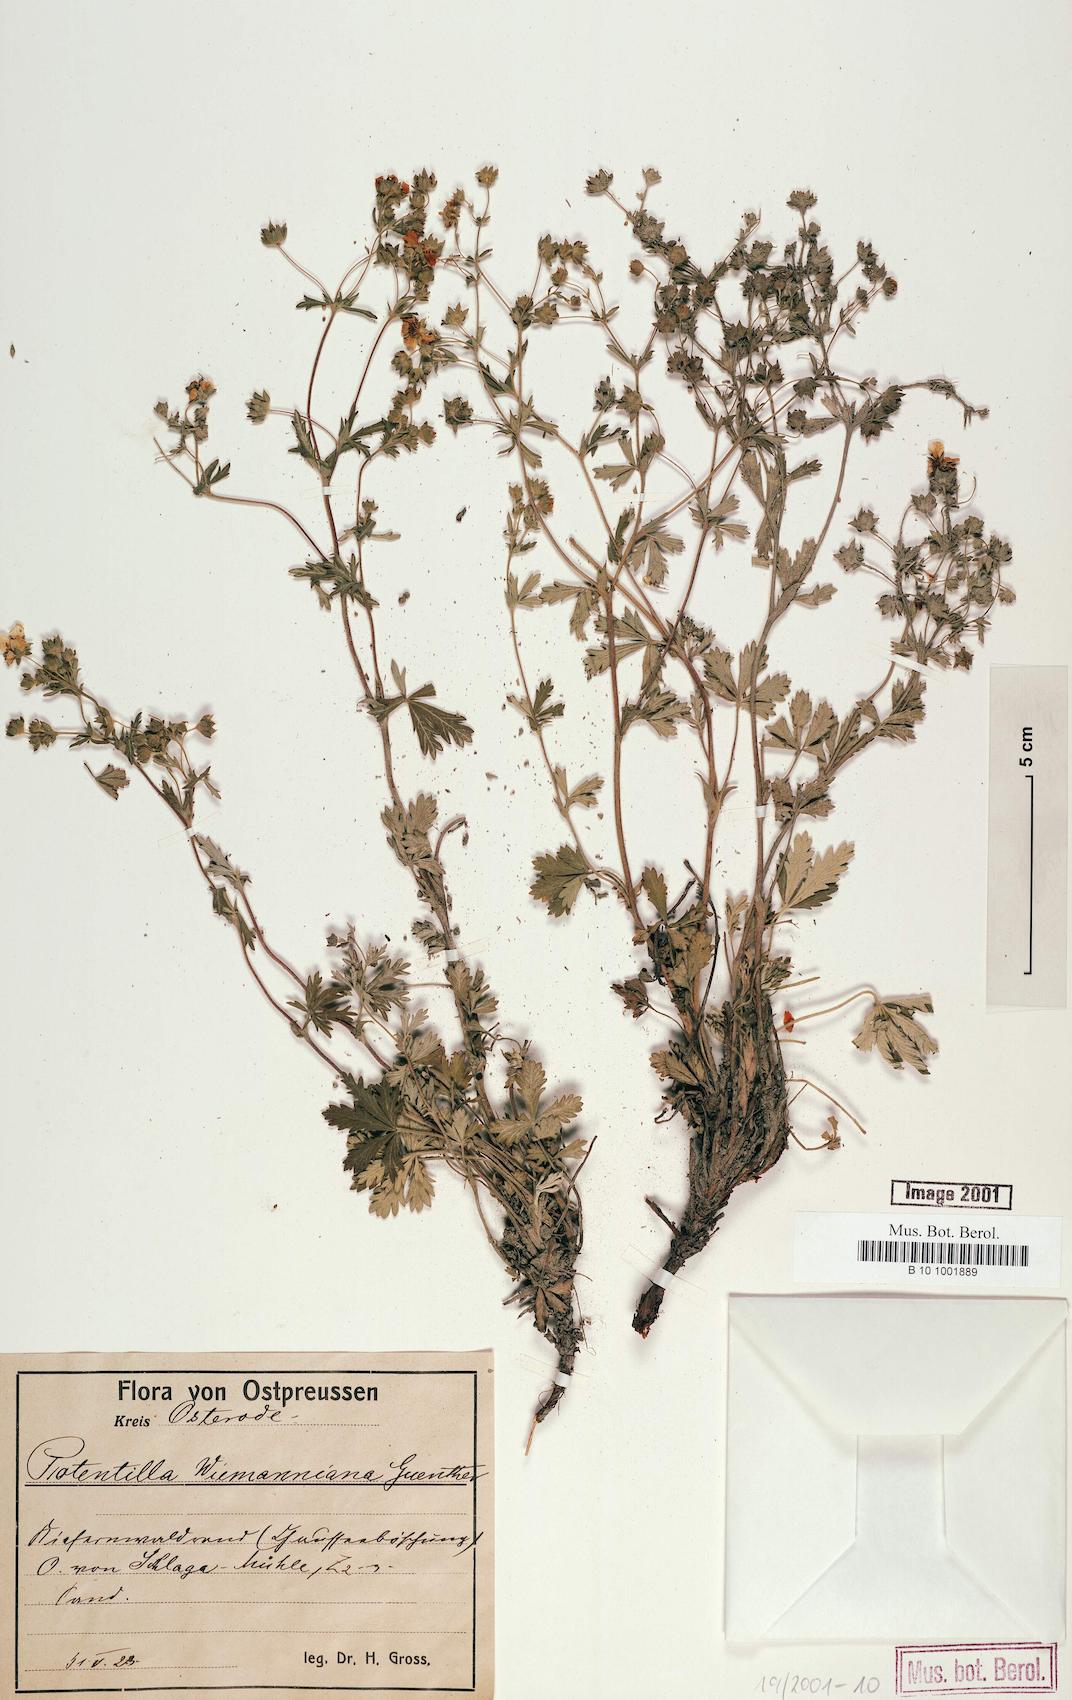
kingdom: Plantae
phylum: Tracheophyta
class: Magnoliopsida
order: Rosales
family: Rosaceae
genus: Potentilla
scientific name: Potentilla
